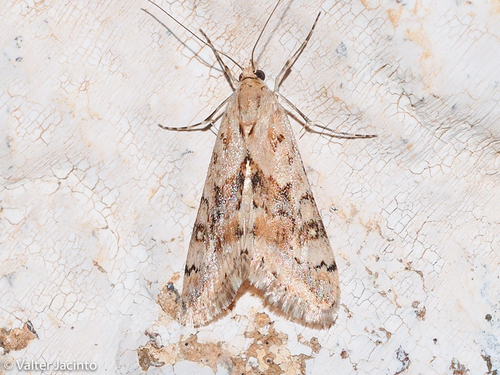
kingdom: Animalia
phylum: Arthropoda
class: Insecta
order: Lepidoptera
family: Crambidae
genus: Cornifrons
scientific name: Cornifrons ulceratalis
